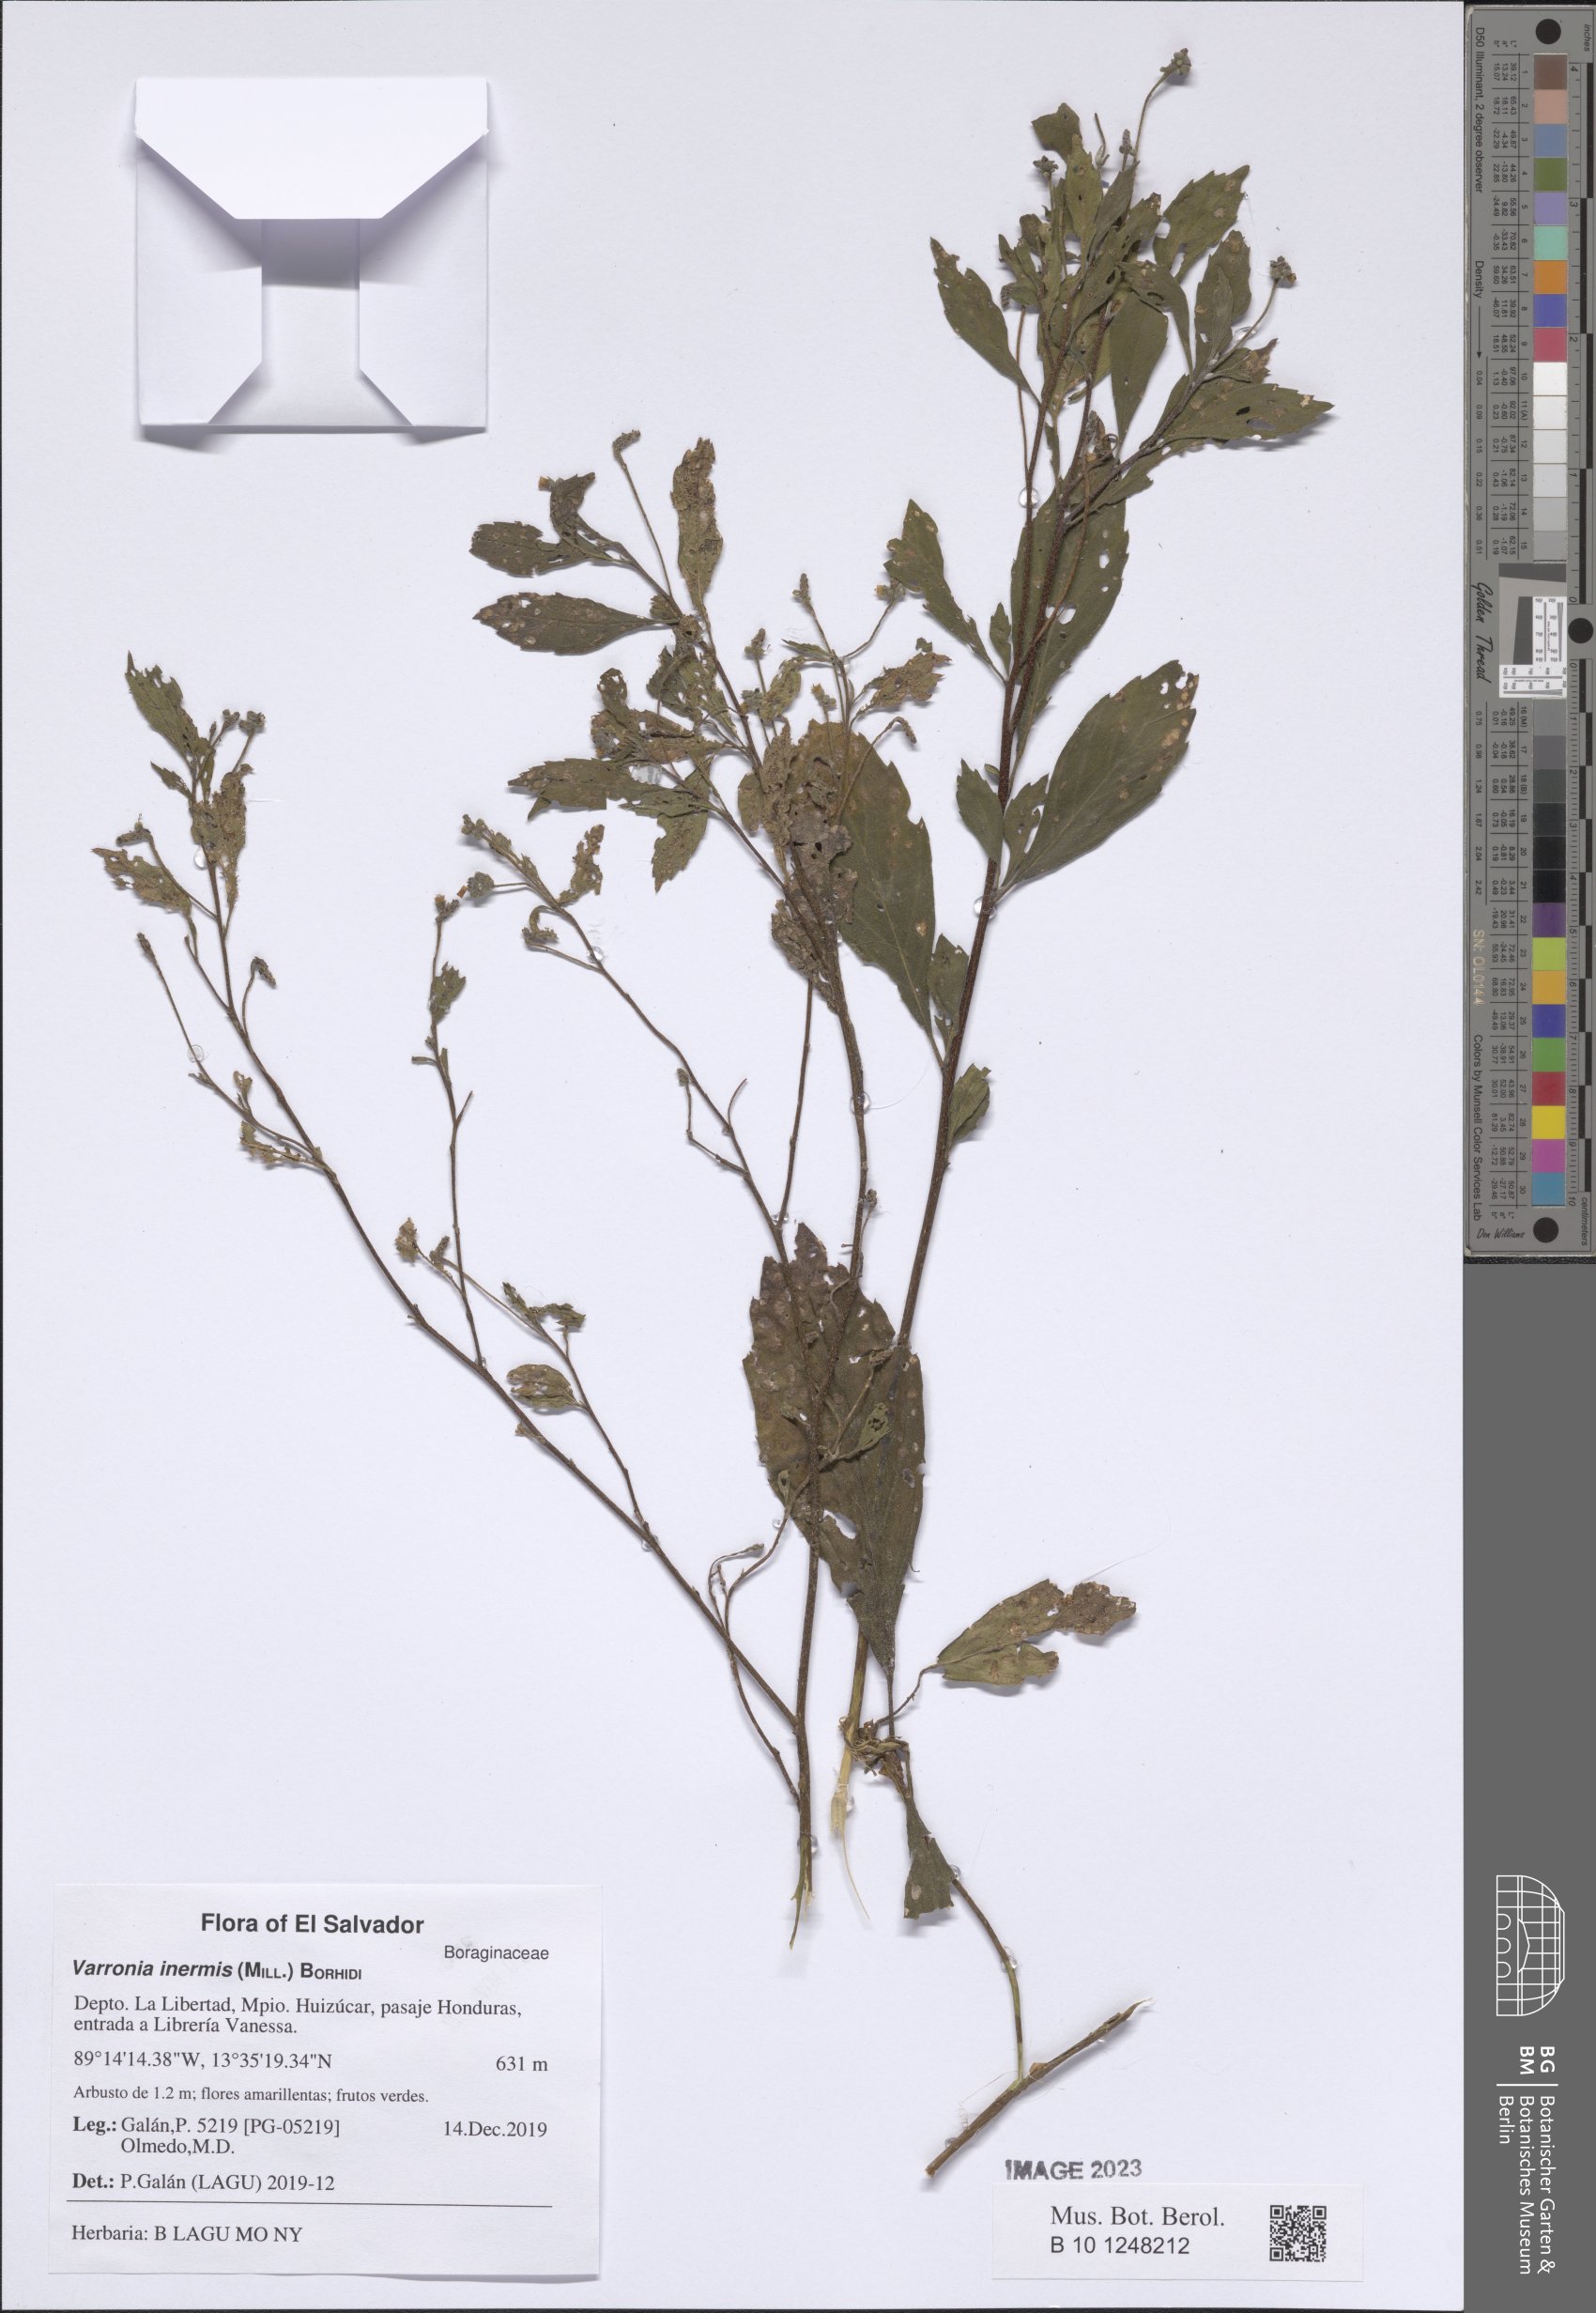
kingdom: Plantae
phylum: Tracheophyta
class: Magnoliopsida
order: Boraginales
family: Cordiaceae
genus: Varronia
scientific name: Varronia inermis
